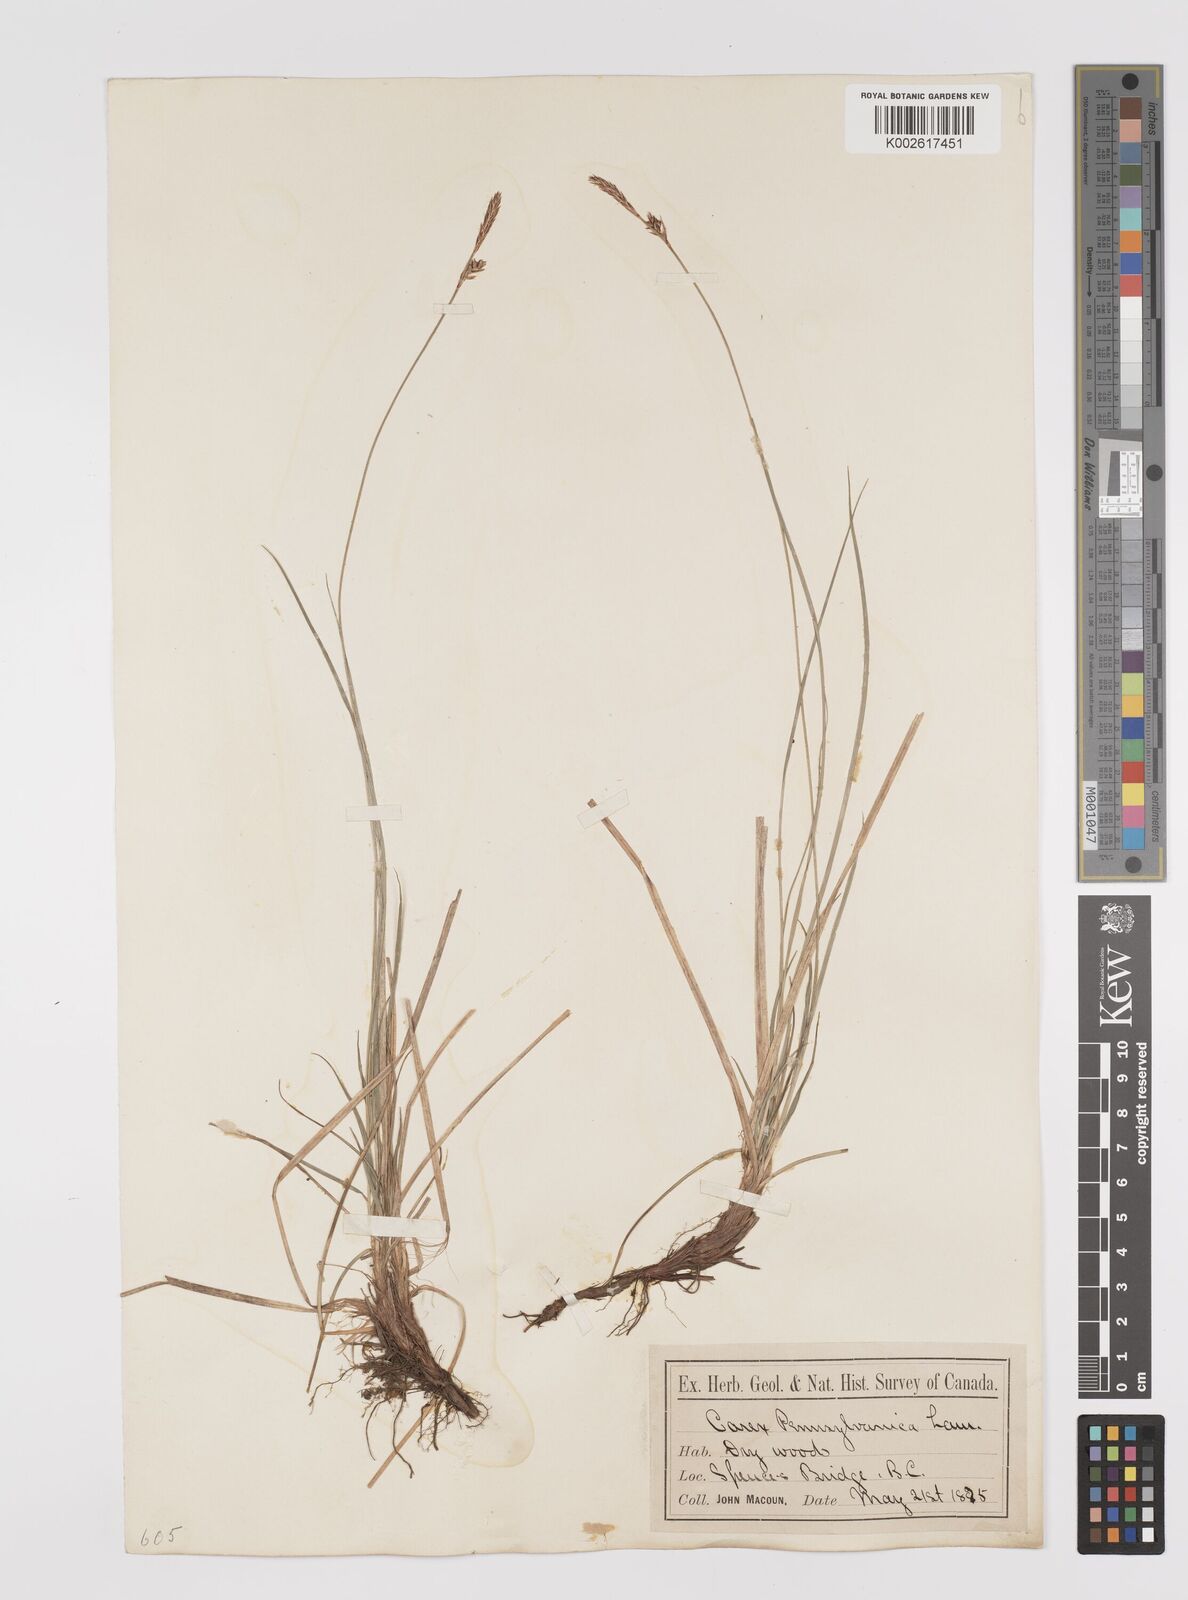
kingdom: Plantae
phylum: Tracheophyta
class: Liliopsida
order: Poales
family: Cyperaceae
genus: Carex
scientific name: Carex pensylvanica
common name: Common oak sedge
